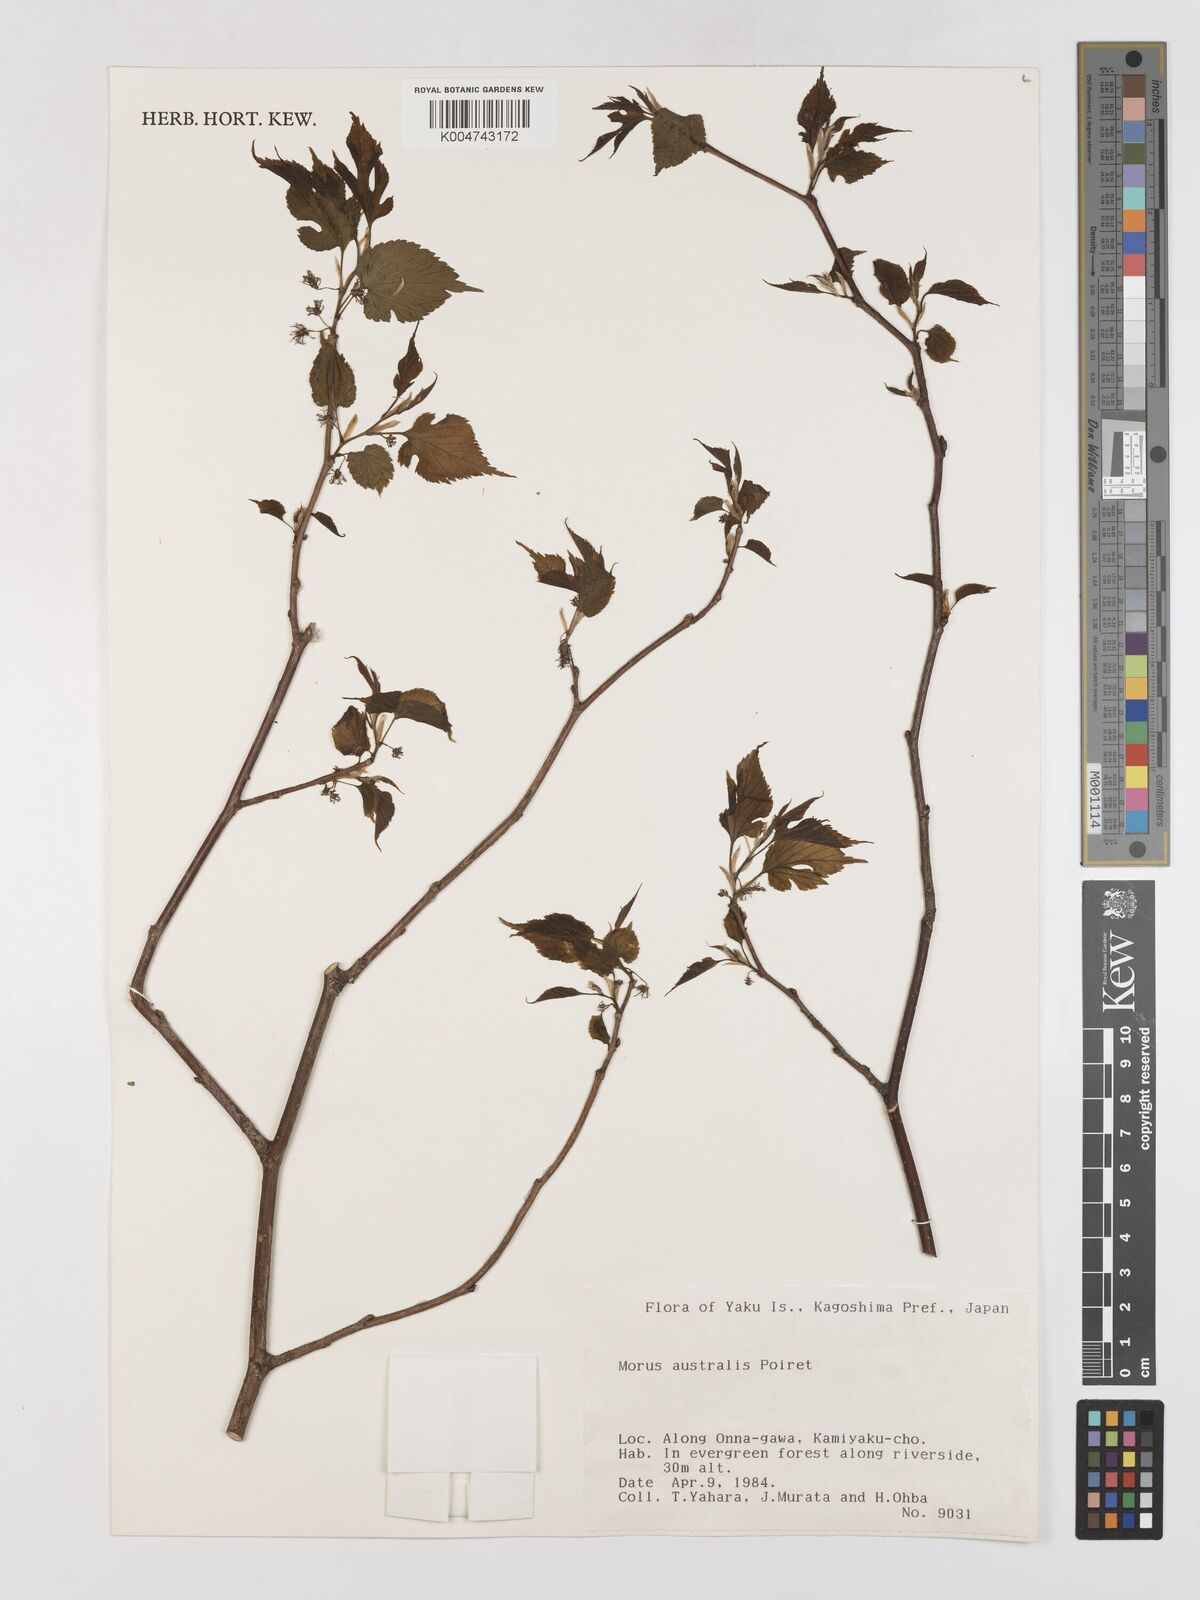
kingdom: Plantae
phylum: Tracheophyta
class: Magnoliopsida
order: Rosales
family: Moraceae
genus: Morus
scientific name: Morus indica
